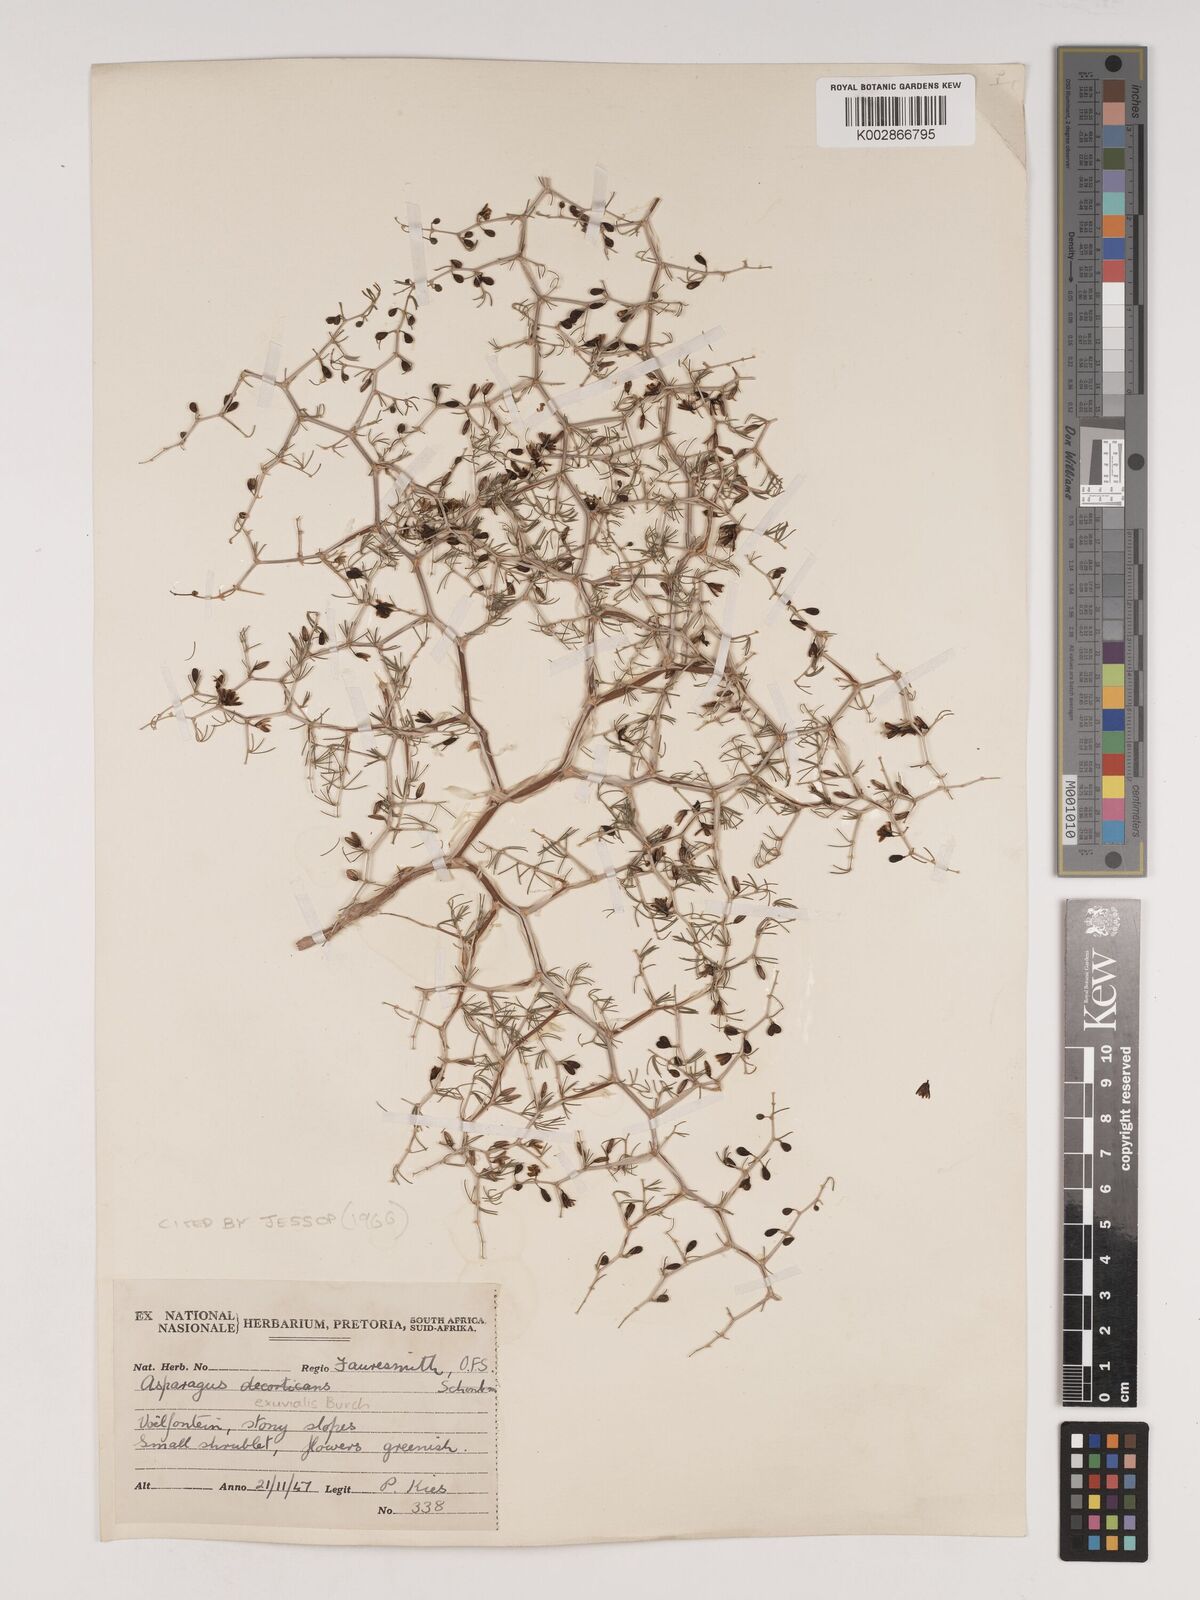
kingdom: Plantae
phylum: Tracheophyta
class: Liliopsida
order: Asparagales
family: Asparagaceae
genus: Asparagus
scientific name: Asparagus exuvialis
